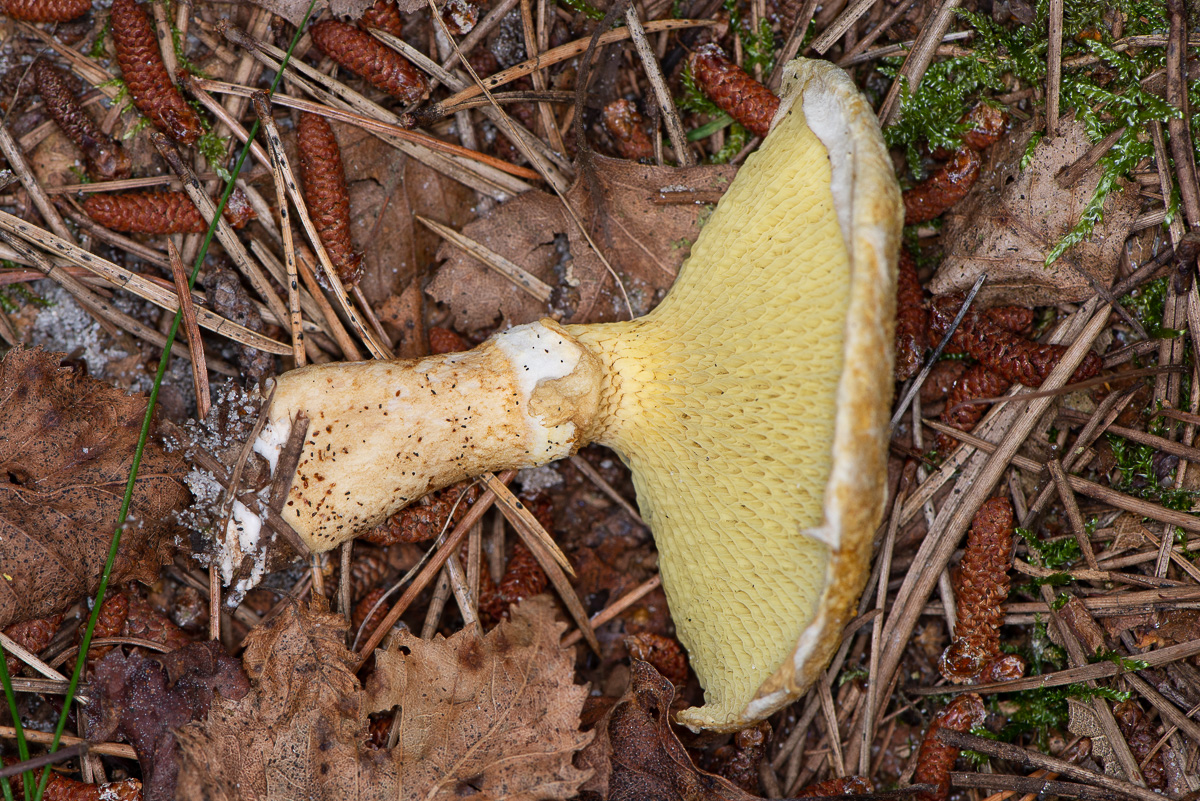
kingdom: Fungi
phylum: Basidiomycota
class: Agaricomycetes
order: Boletales
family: Suillaceae
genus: Suillus
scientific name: Suillus cavipes
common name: hulstokket slimrørhat
